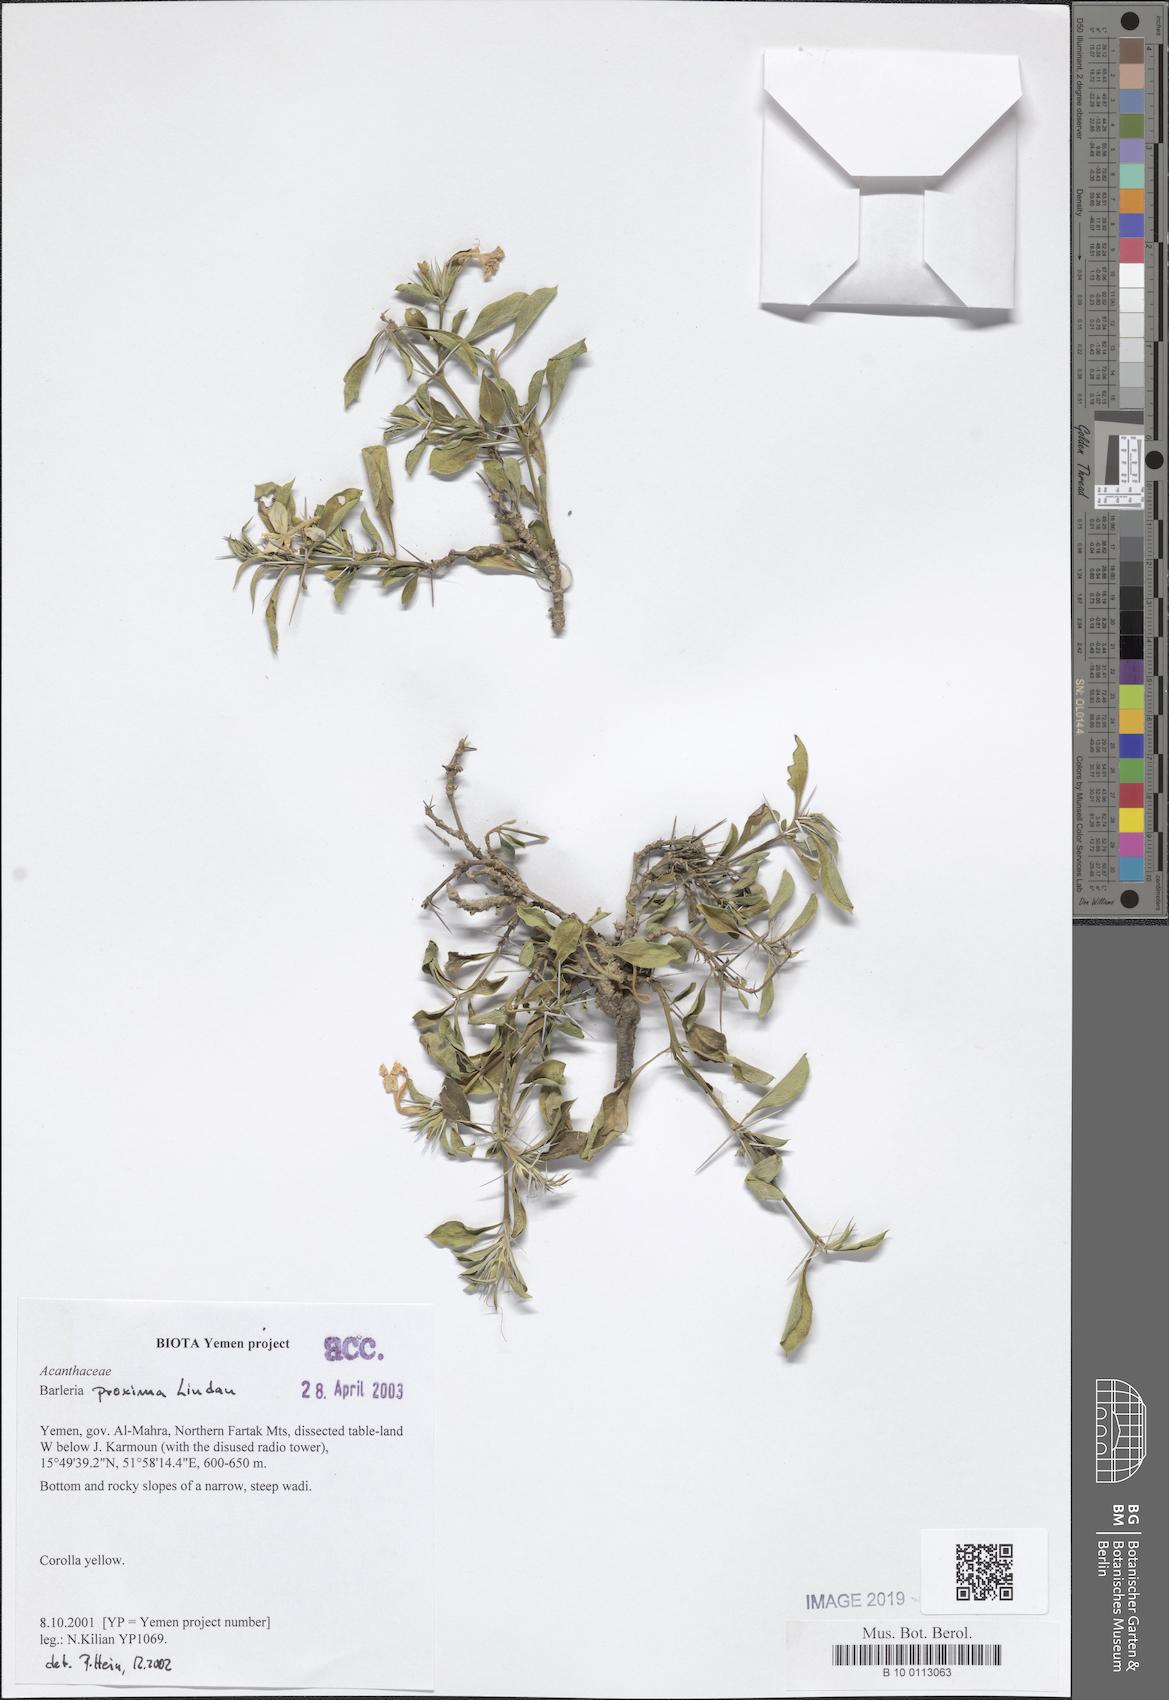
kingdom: Plantae
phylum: Tracheophyta
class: Magnoliopsida
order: Lamiales
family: Acanthaceae
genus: Barleria
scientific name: Barleria proxima
